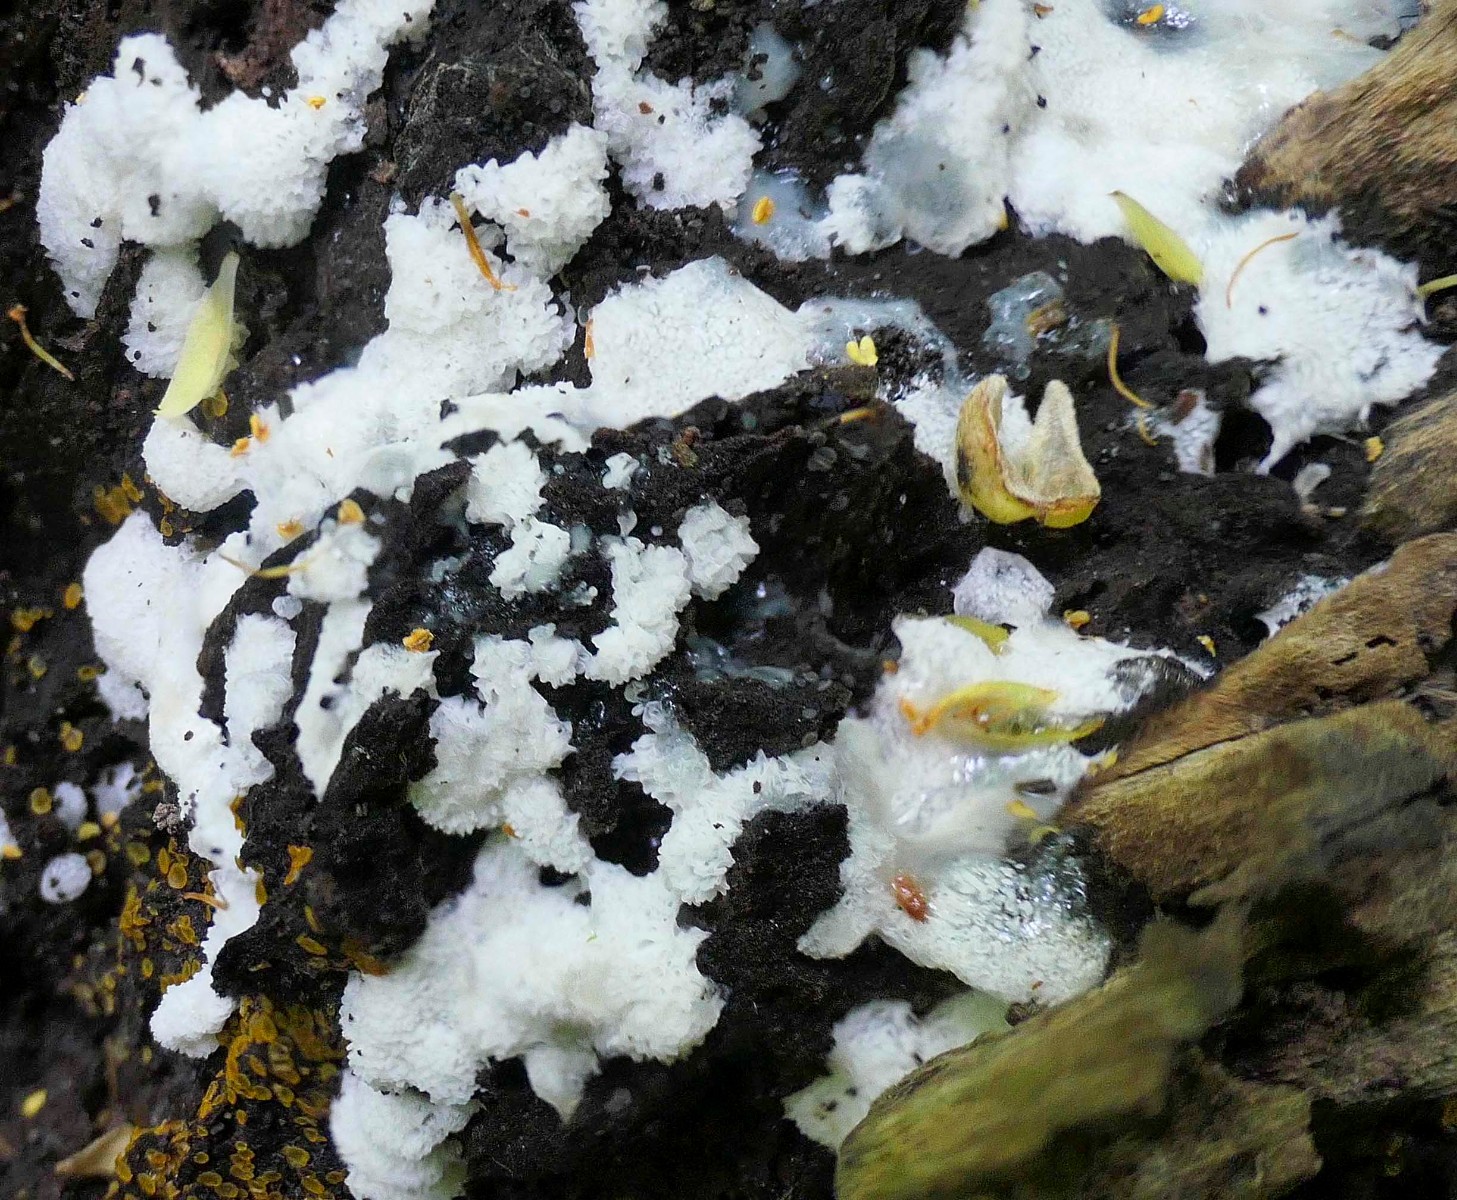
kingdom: Protozoa
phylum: Mycetozoa
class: Protosteliomycetes
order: Ceratiomyxales
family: Ceratiomyxaceae
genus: Ceratiomyxa
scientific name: Ceratiomyxa fruticulosa
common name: Honeycomb coral slime mold
